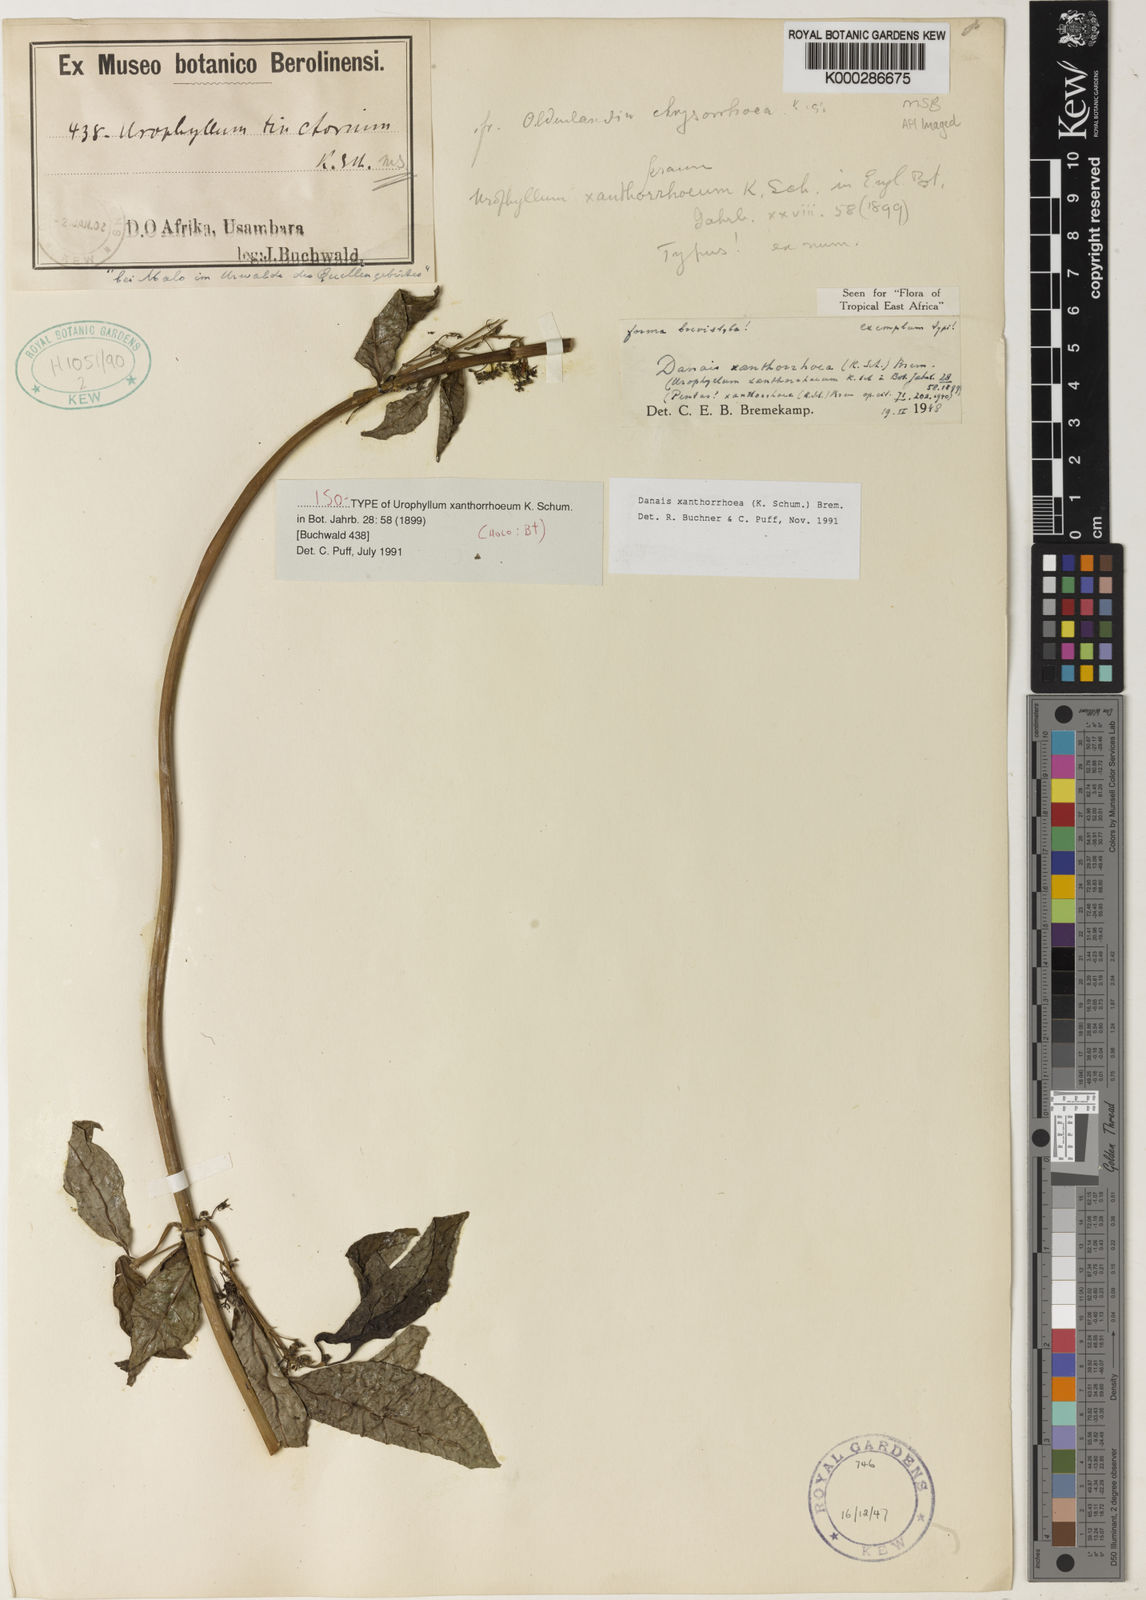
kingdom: Plantae
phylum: Tracheophyta
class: Magnoliopsida
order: Gentianales
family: Rubiaceae
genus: Danais
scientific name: Danais xanthorrhoea
